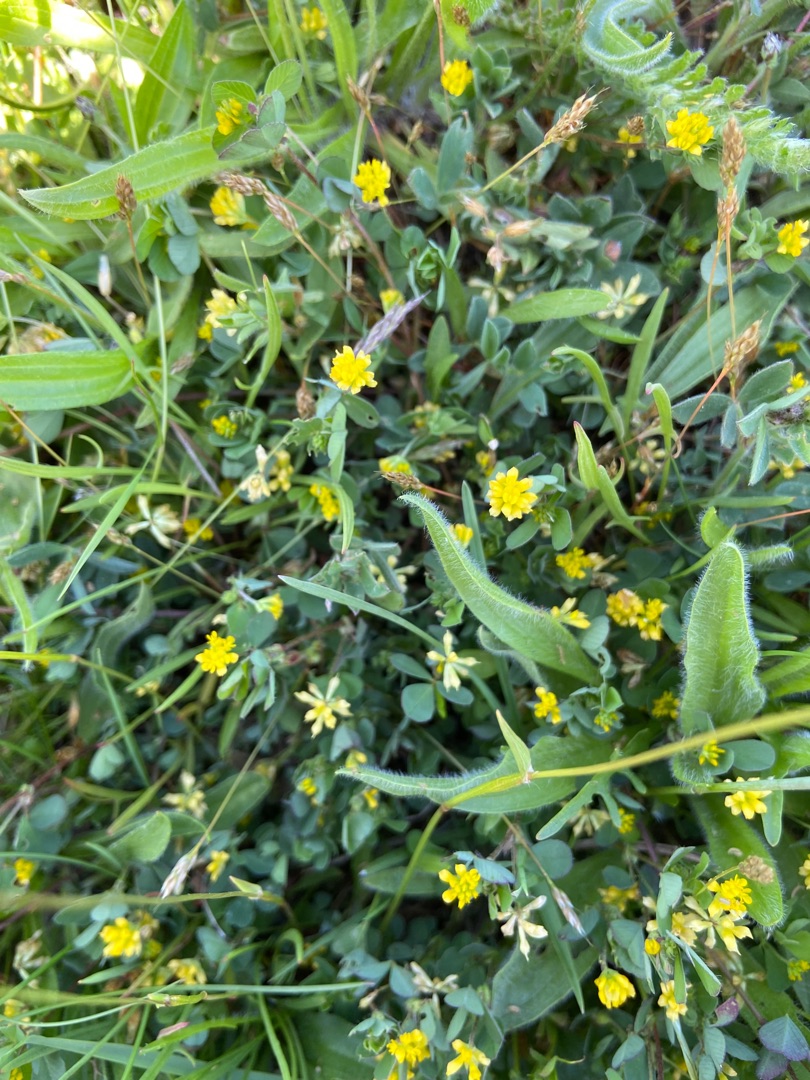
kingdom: Plantae
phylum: Tracheophyta
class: Magnoliopsida
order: Fabales
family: Fabaceae
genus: Trifolium
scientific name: Trifolium dubium
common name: Fin kløver
